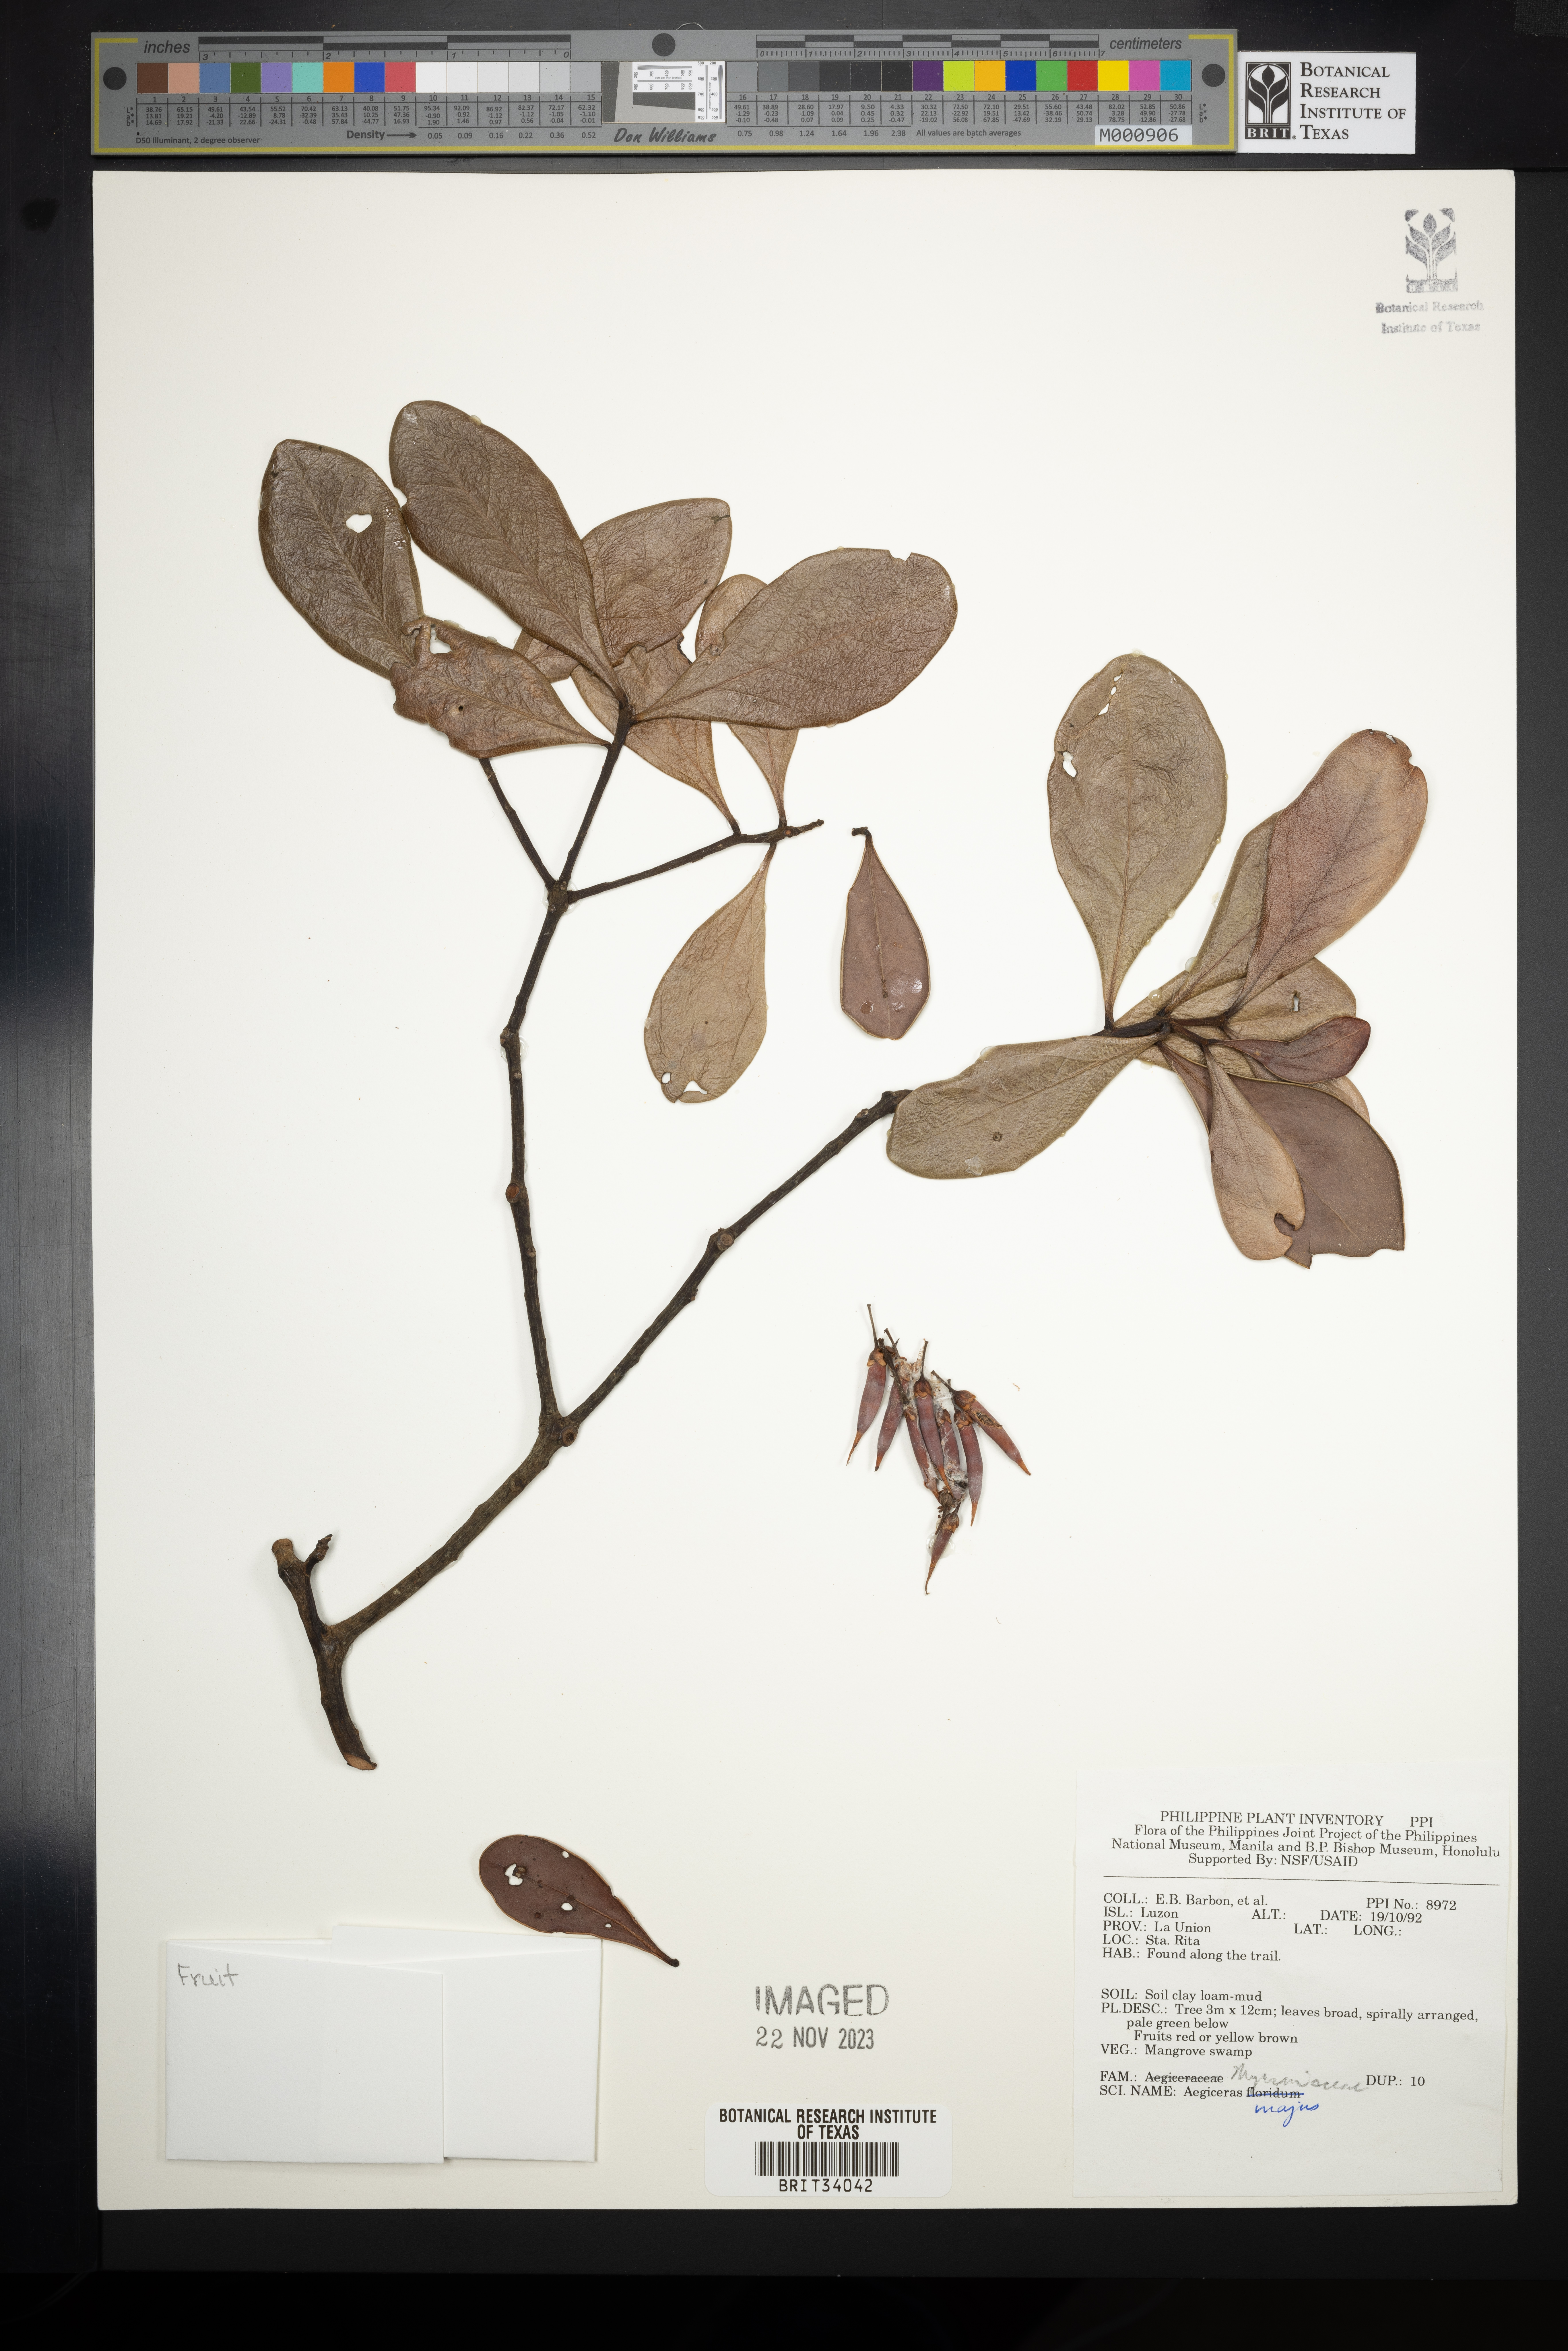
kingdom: Plantae
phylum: Tracheophyta
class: Magnoliopsida
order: Ericales
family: Primulaceae
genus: Aegiceras
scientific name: Aegiceras corniculatum
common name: River mangrove
